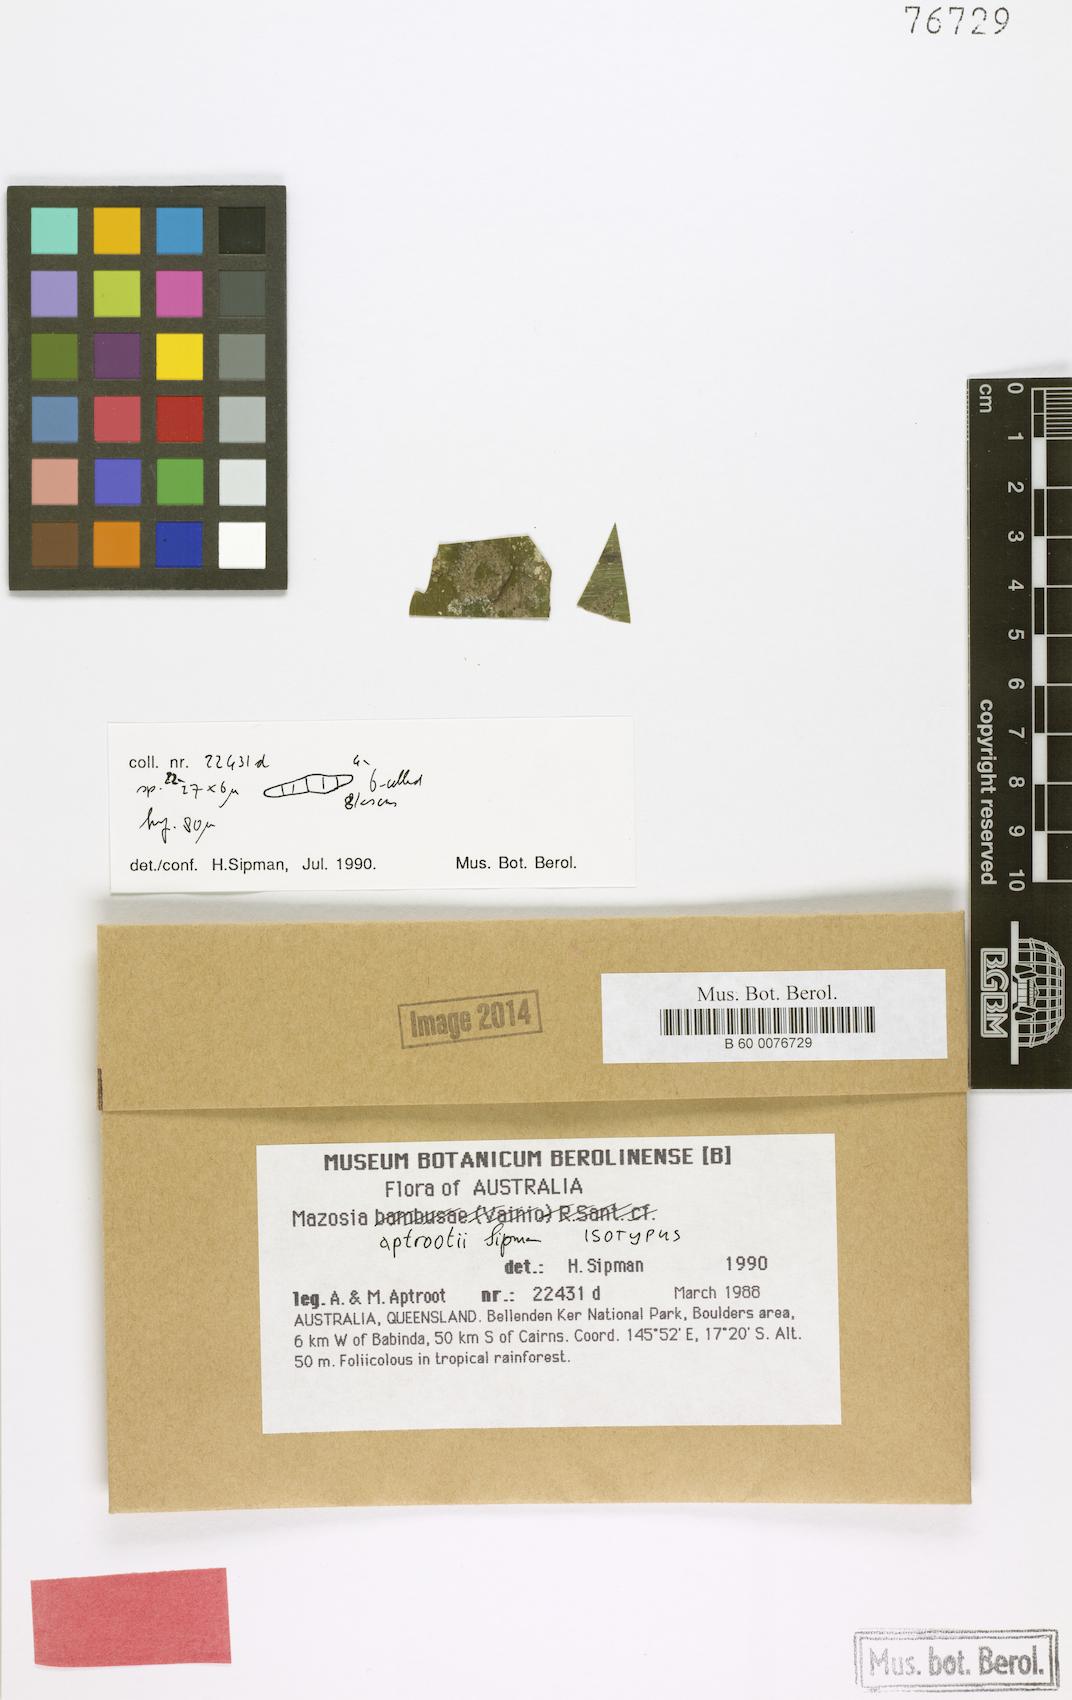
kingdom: Fungi
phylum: Ascomycota
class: Arthoniomycetes
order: Arthoniales
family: Roccellaceae
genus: Mazosia
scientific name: Mazosia aptrootii
